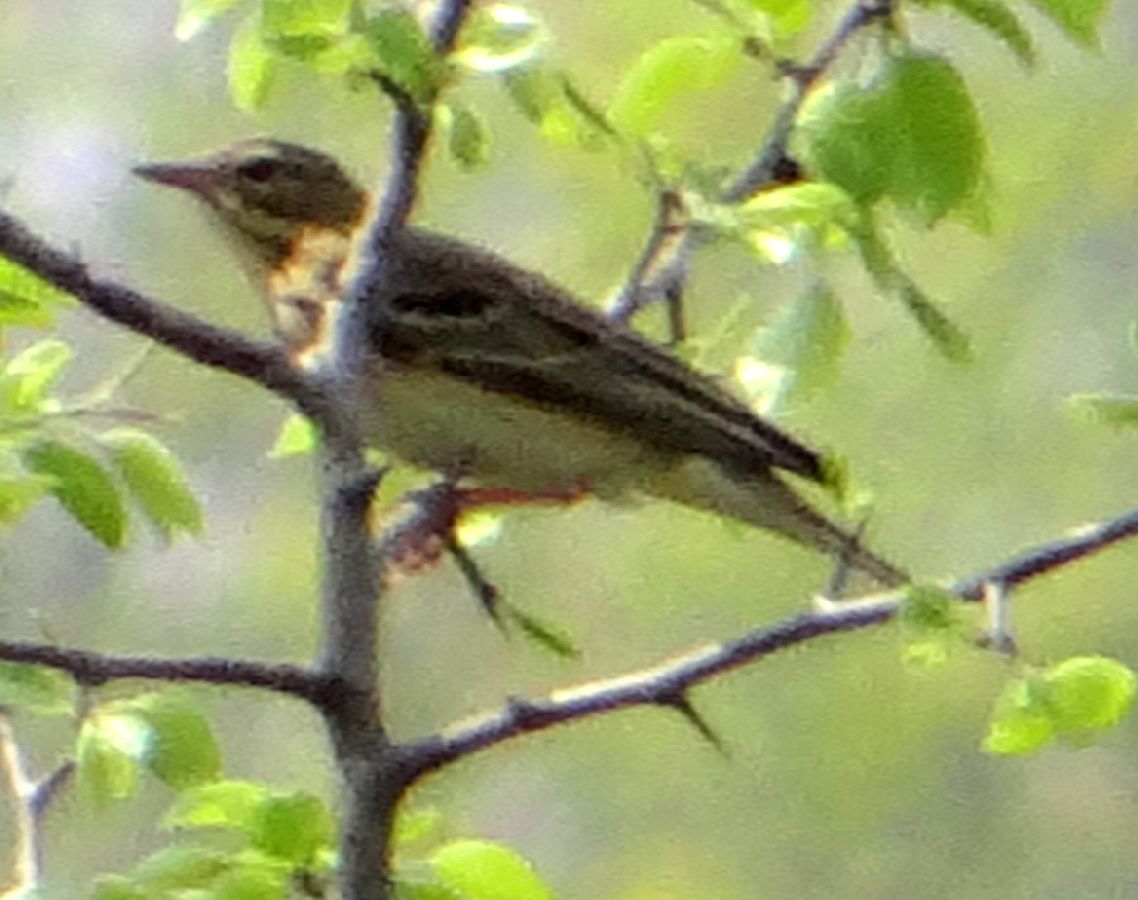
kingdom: Animalia
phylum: Chordata
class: Aves
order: Passeriformes
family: Alaudidae
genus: Alauda
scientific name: Alauda arvensis
